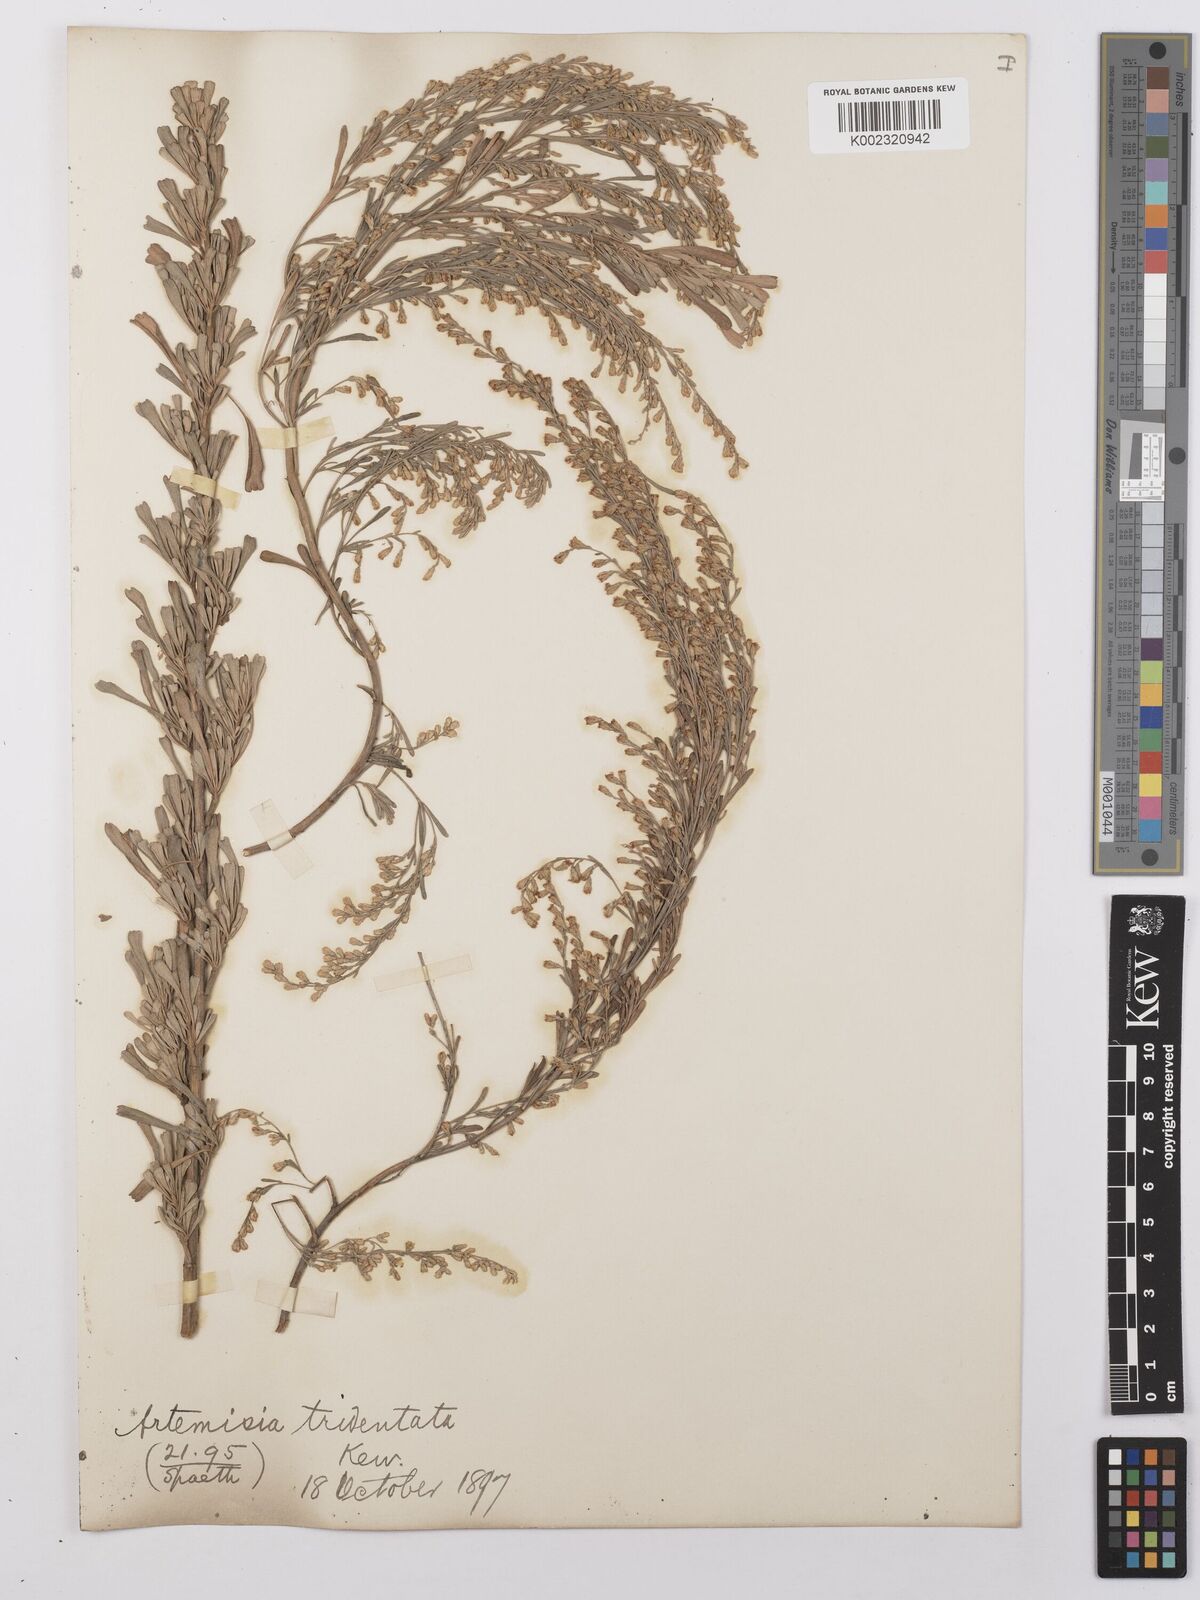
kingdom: Plantae
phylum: Tracheophyta
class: Magnoliopsida
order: Asterales
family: Asteraceae
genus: Artemisia
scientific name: Artemisia tridentata
